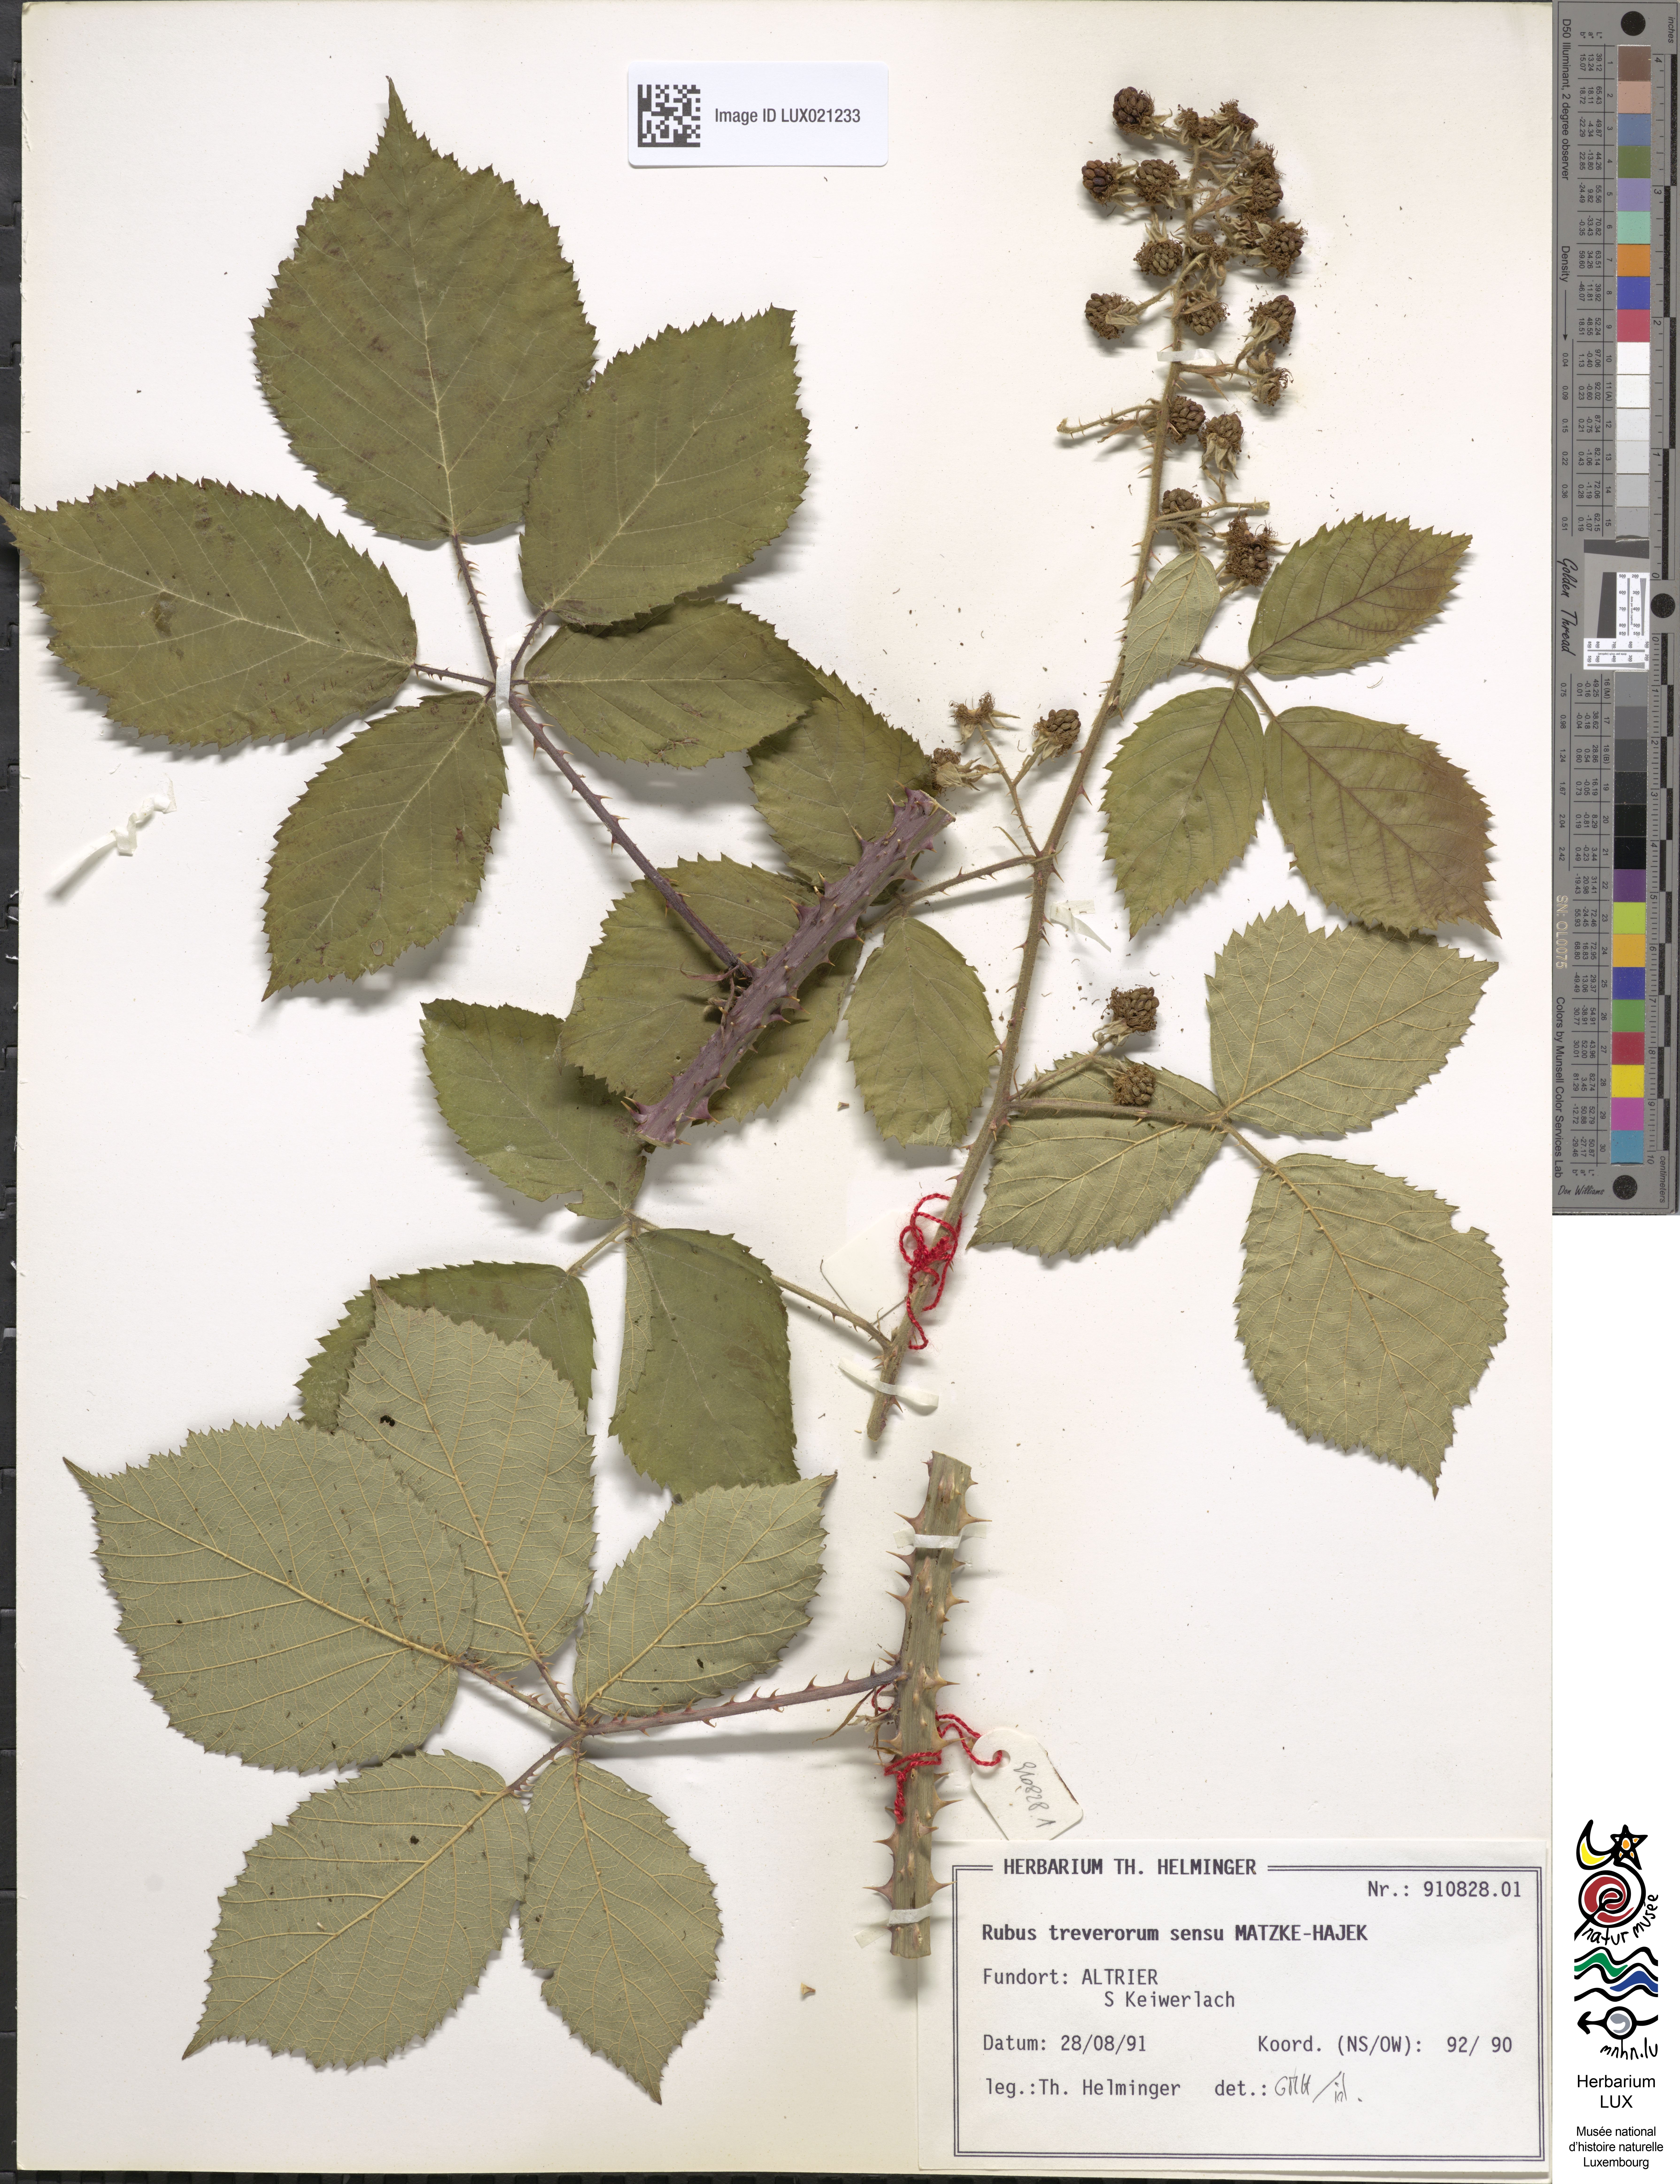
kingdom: Plantae
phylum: Tracheophyta
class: Magnoliopsida
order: Rosales
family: Rosaceae
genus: Rubus
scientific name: Rubus
